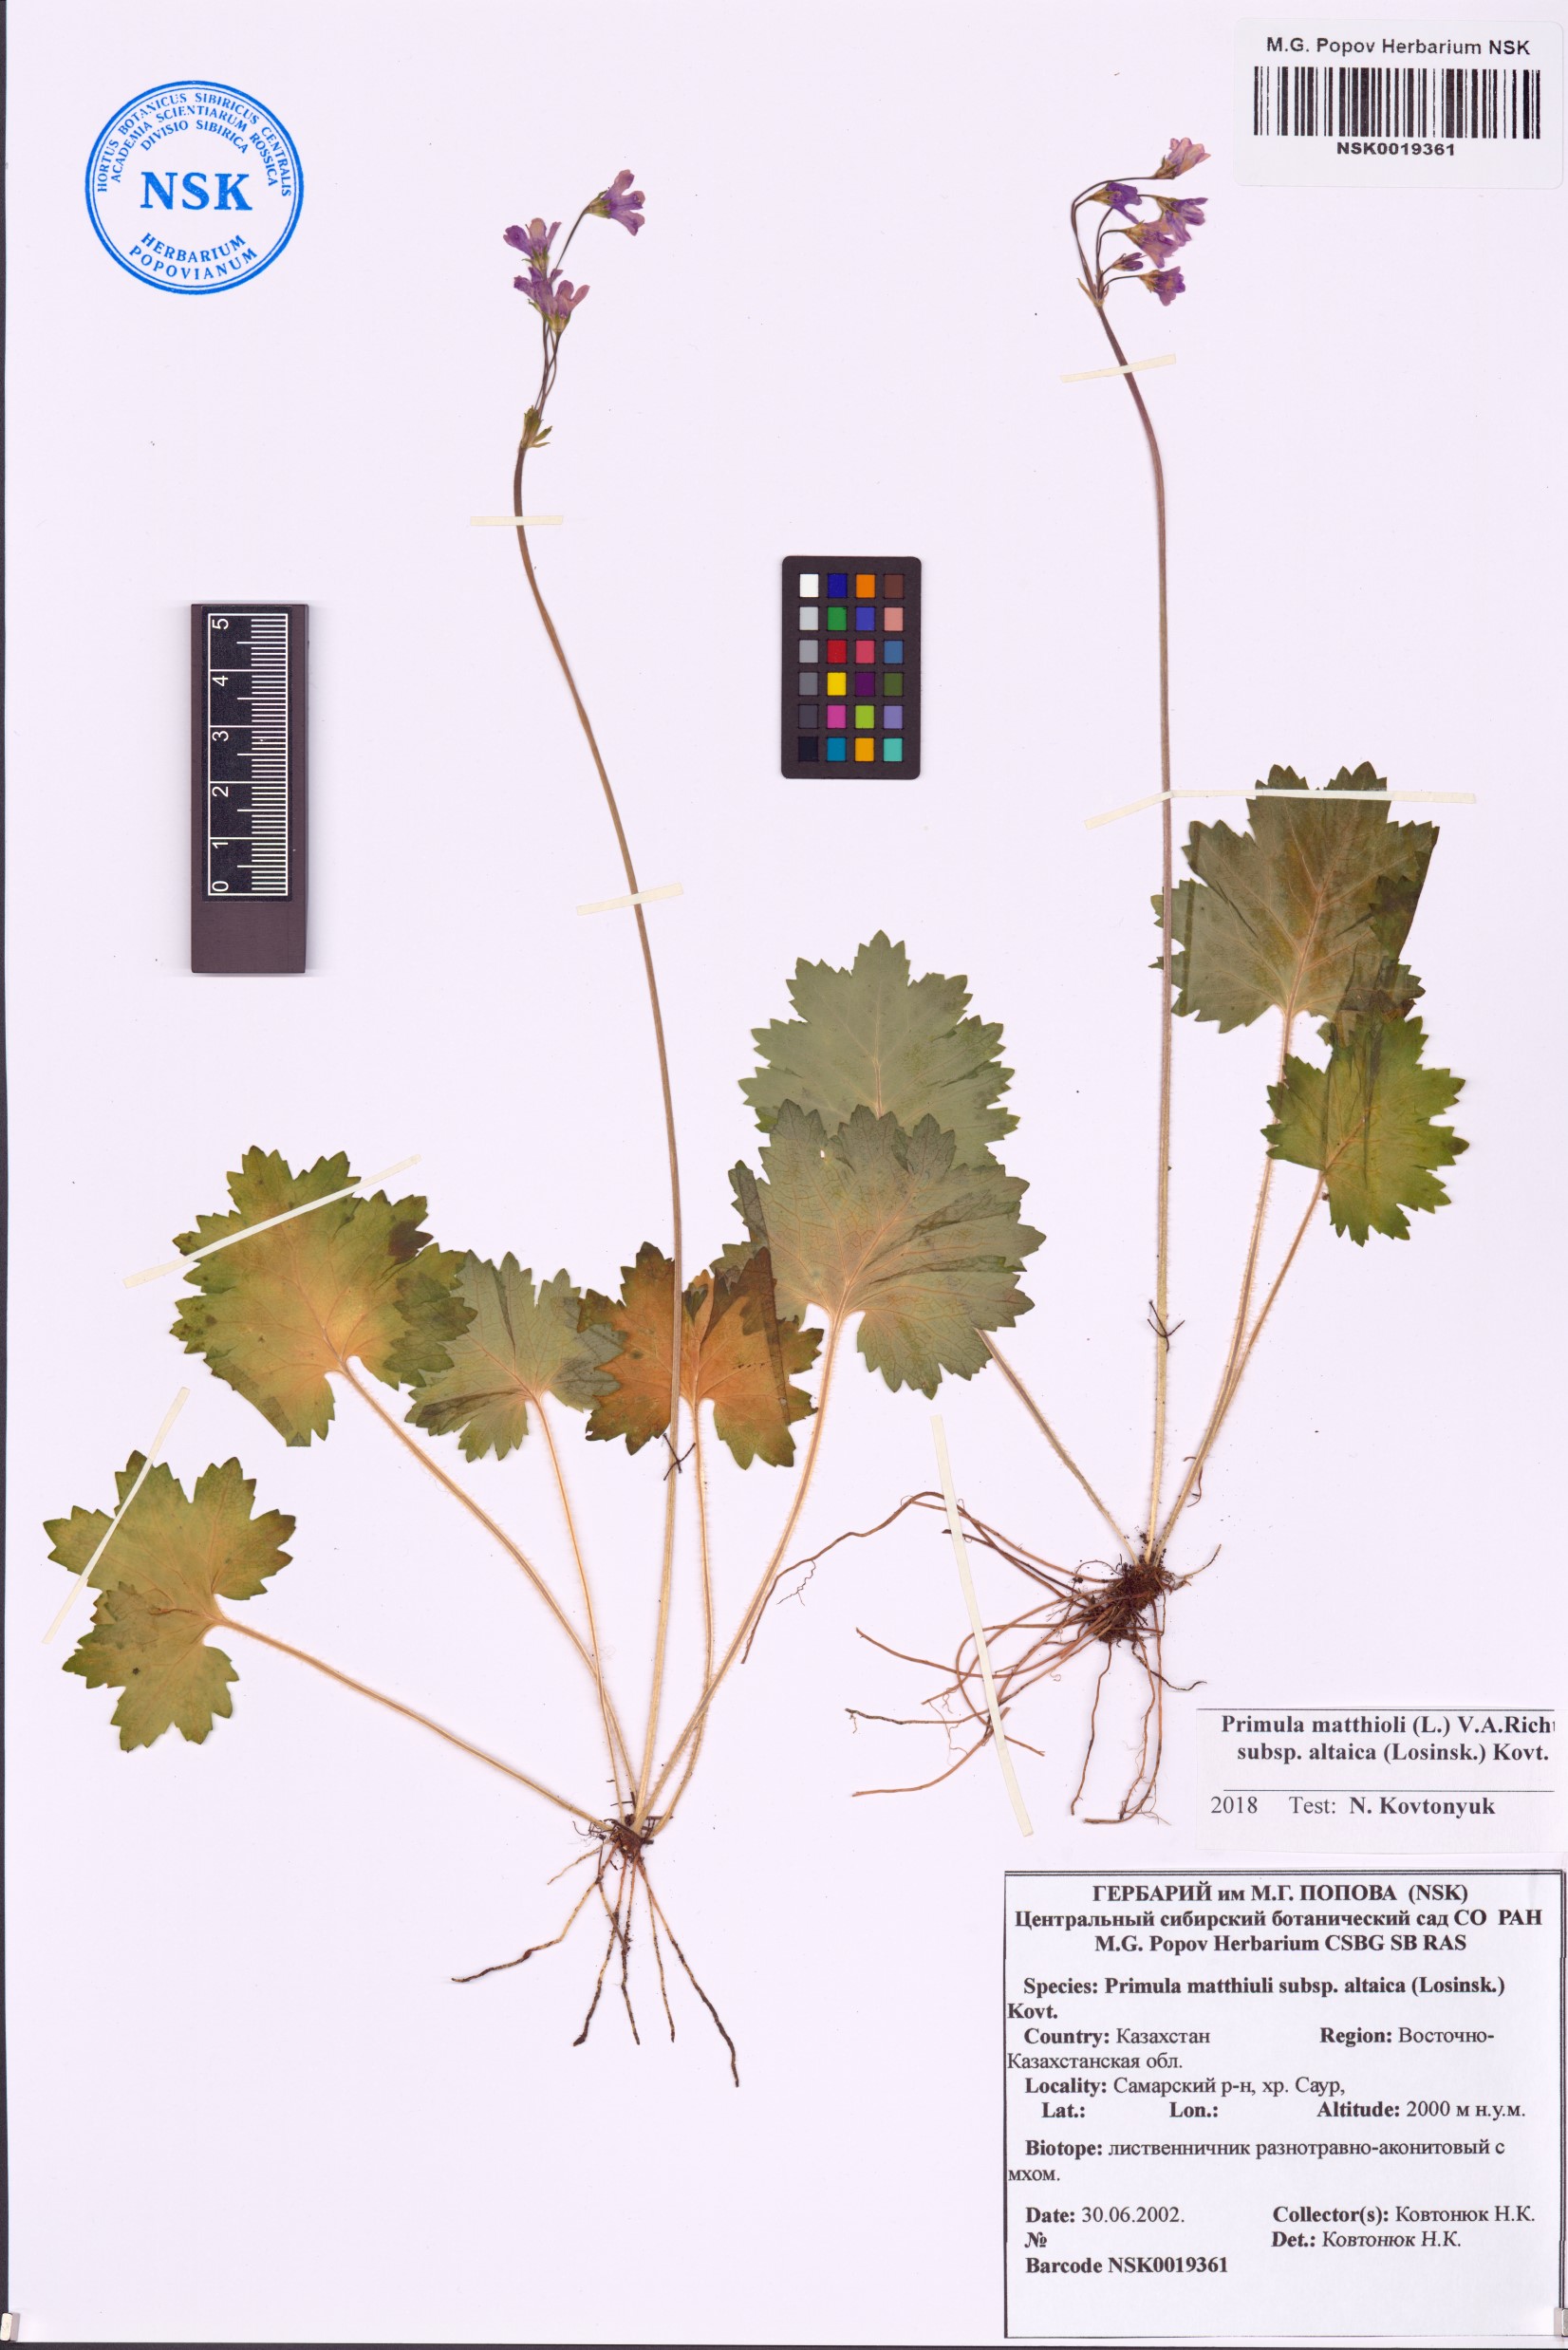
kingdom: Plantae
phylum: Tracheophyta
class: Magnoliopsida
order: Ericales
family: Primulaceae
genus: Primula
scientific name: Primula matthioli
